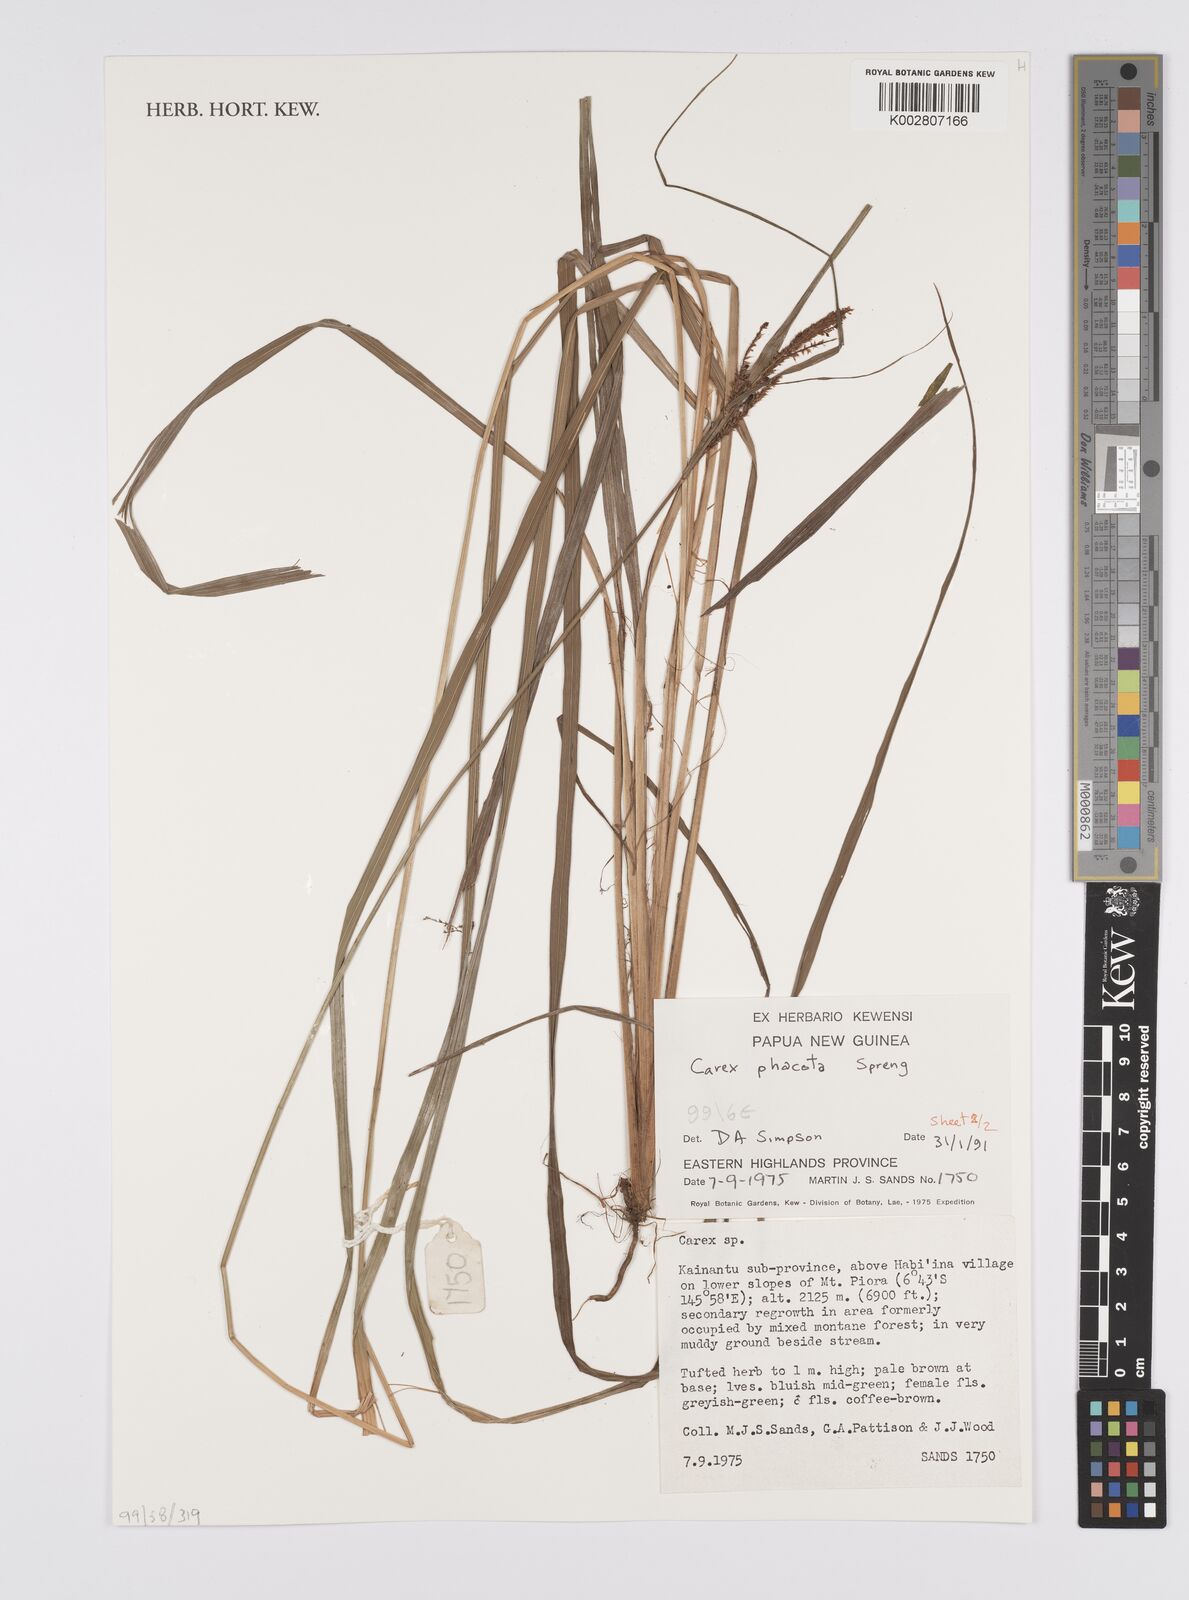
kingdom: Plantae
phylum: Tracheophyta
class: Liliopsida
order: Poales
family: Cyperaceae
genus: Carex
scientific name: Carex phacota
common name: Lakeshore sedge
